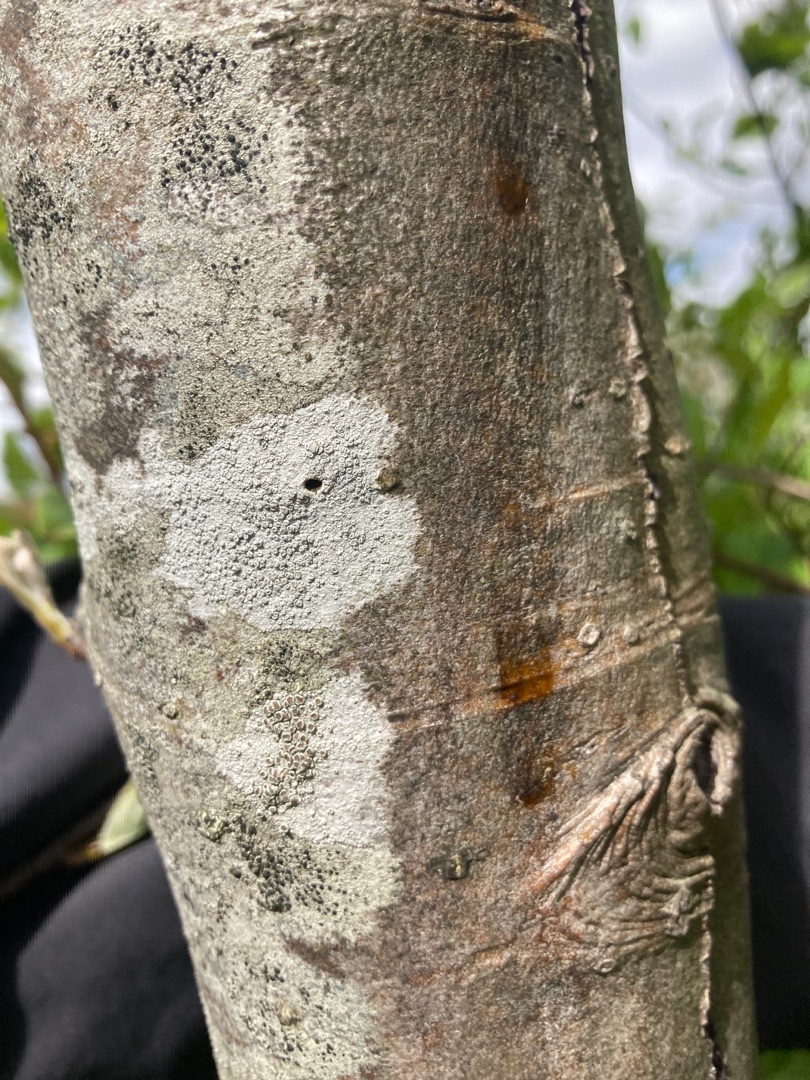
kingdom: Fungi
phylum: Ascomycota
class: Lecanoromycetes
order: Lecanorales
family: Lecanoraceae
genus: Glaucomaria
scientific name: Glaucomaria carpinea
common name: Hviddugget kantskivelav
